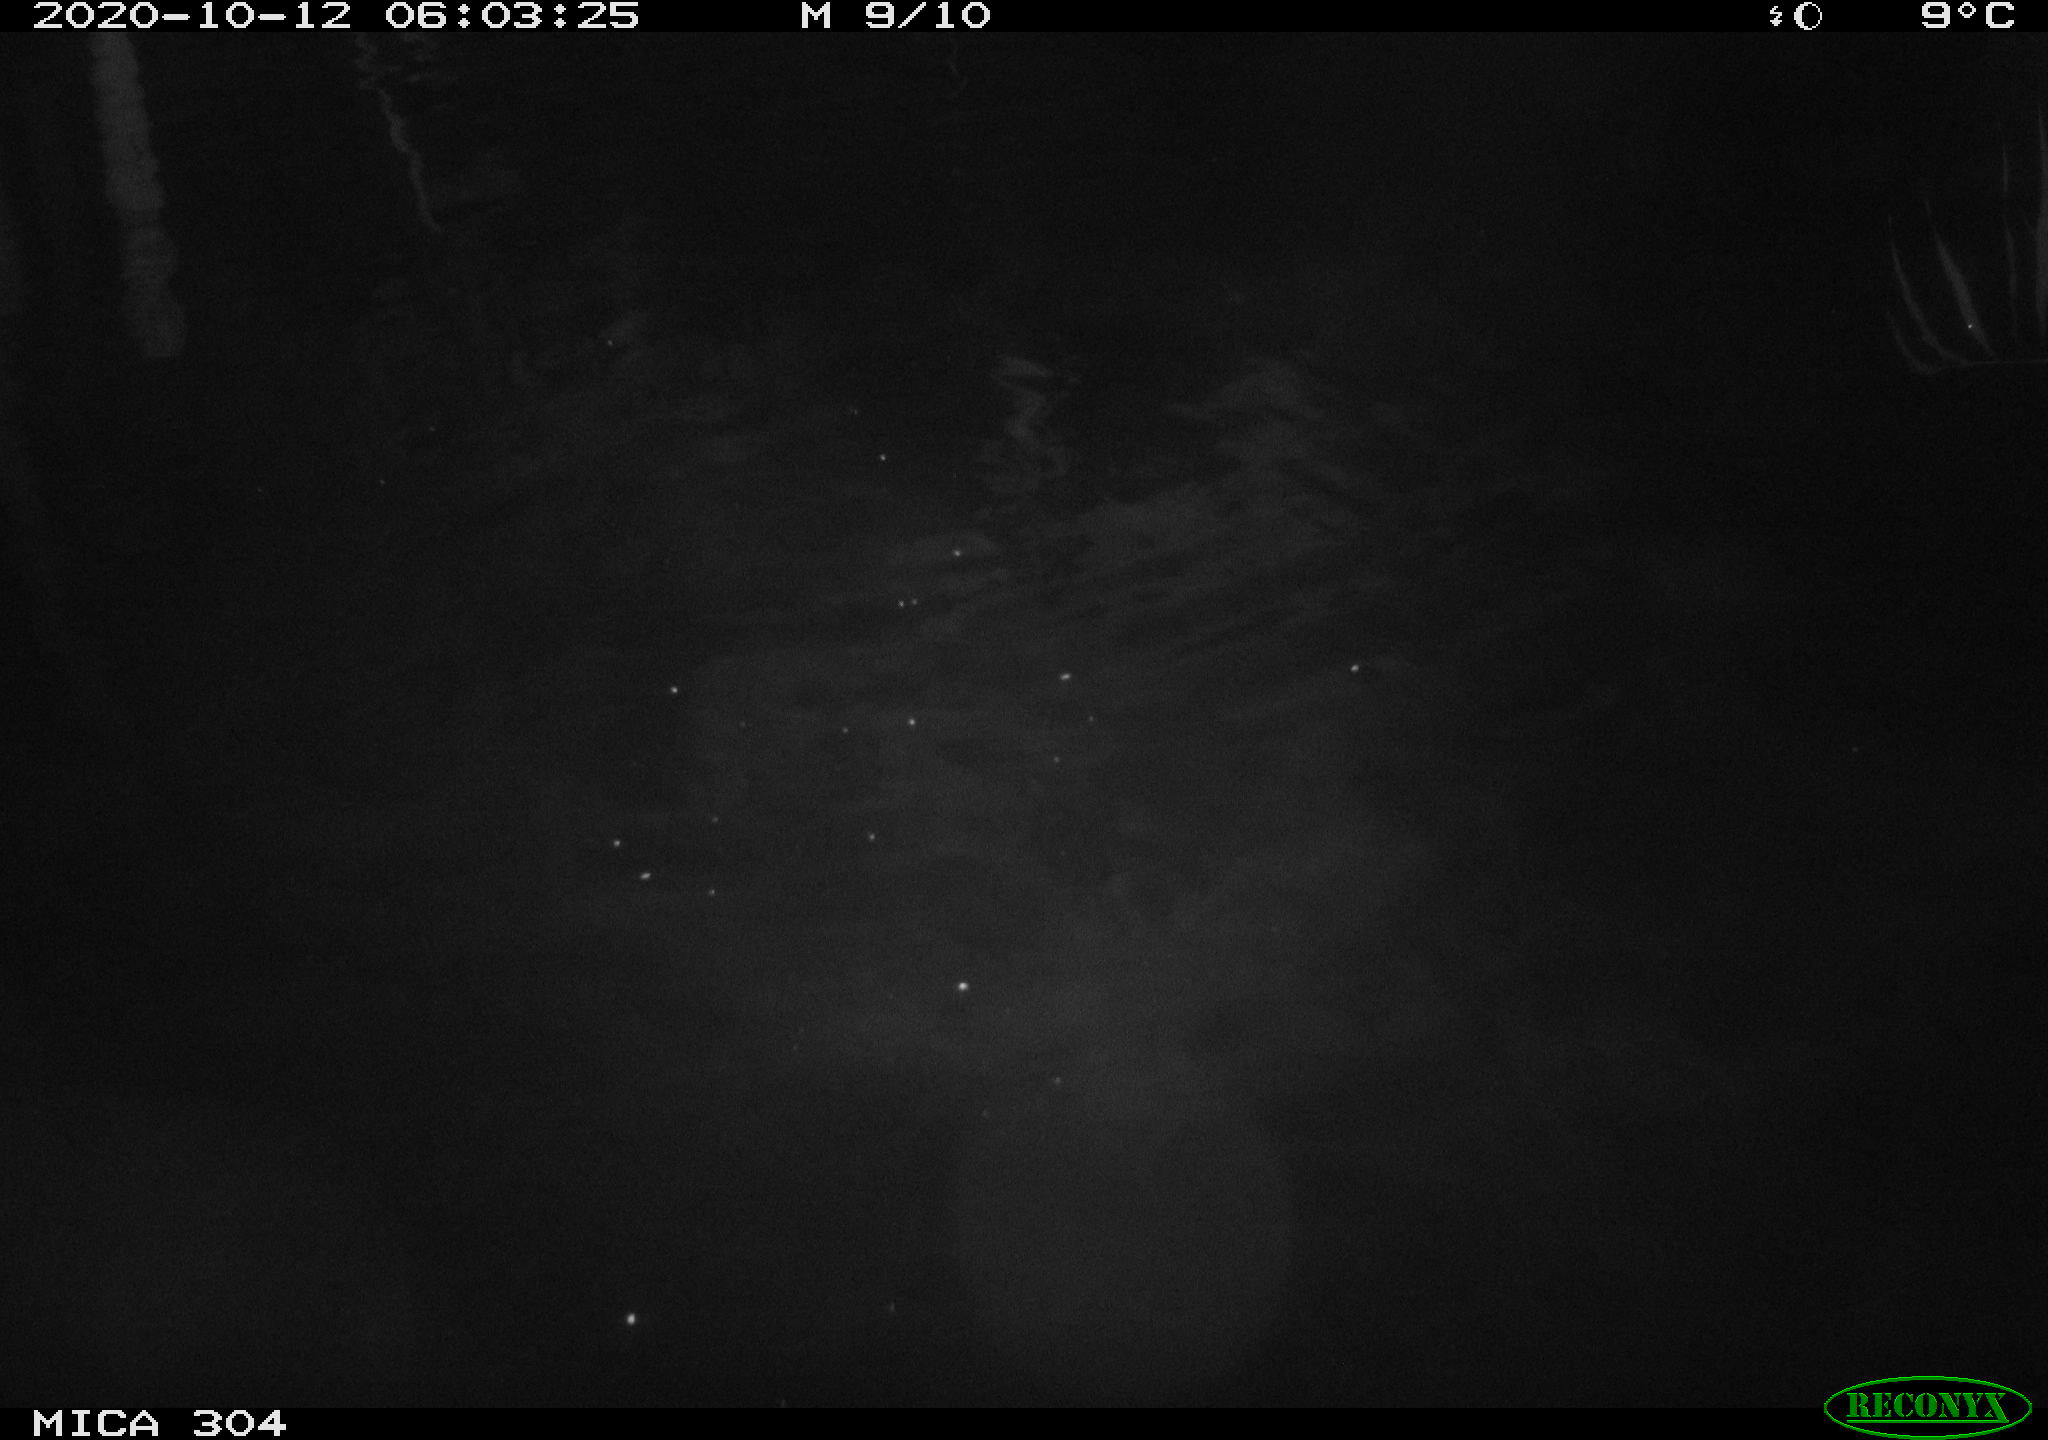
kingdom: Animalia
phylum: Chordata
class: Mammalia
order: Rodentia
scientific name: Rodentia
